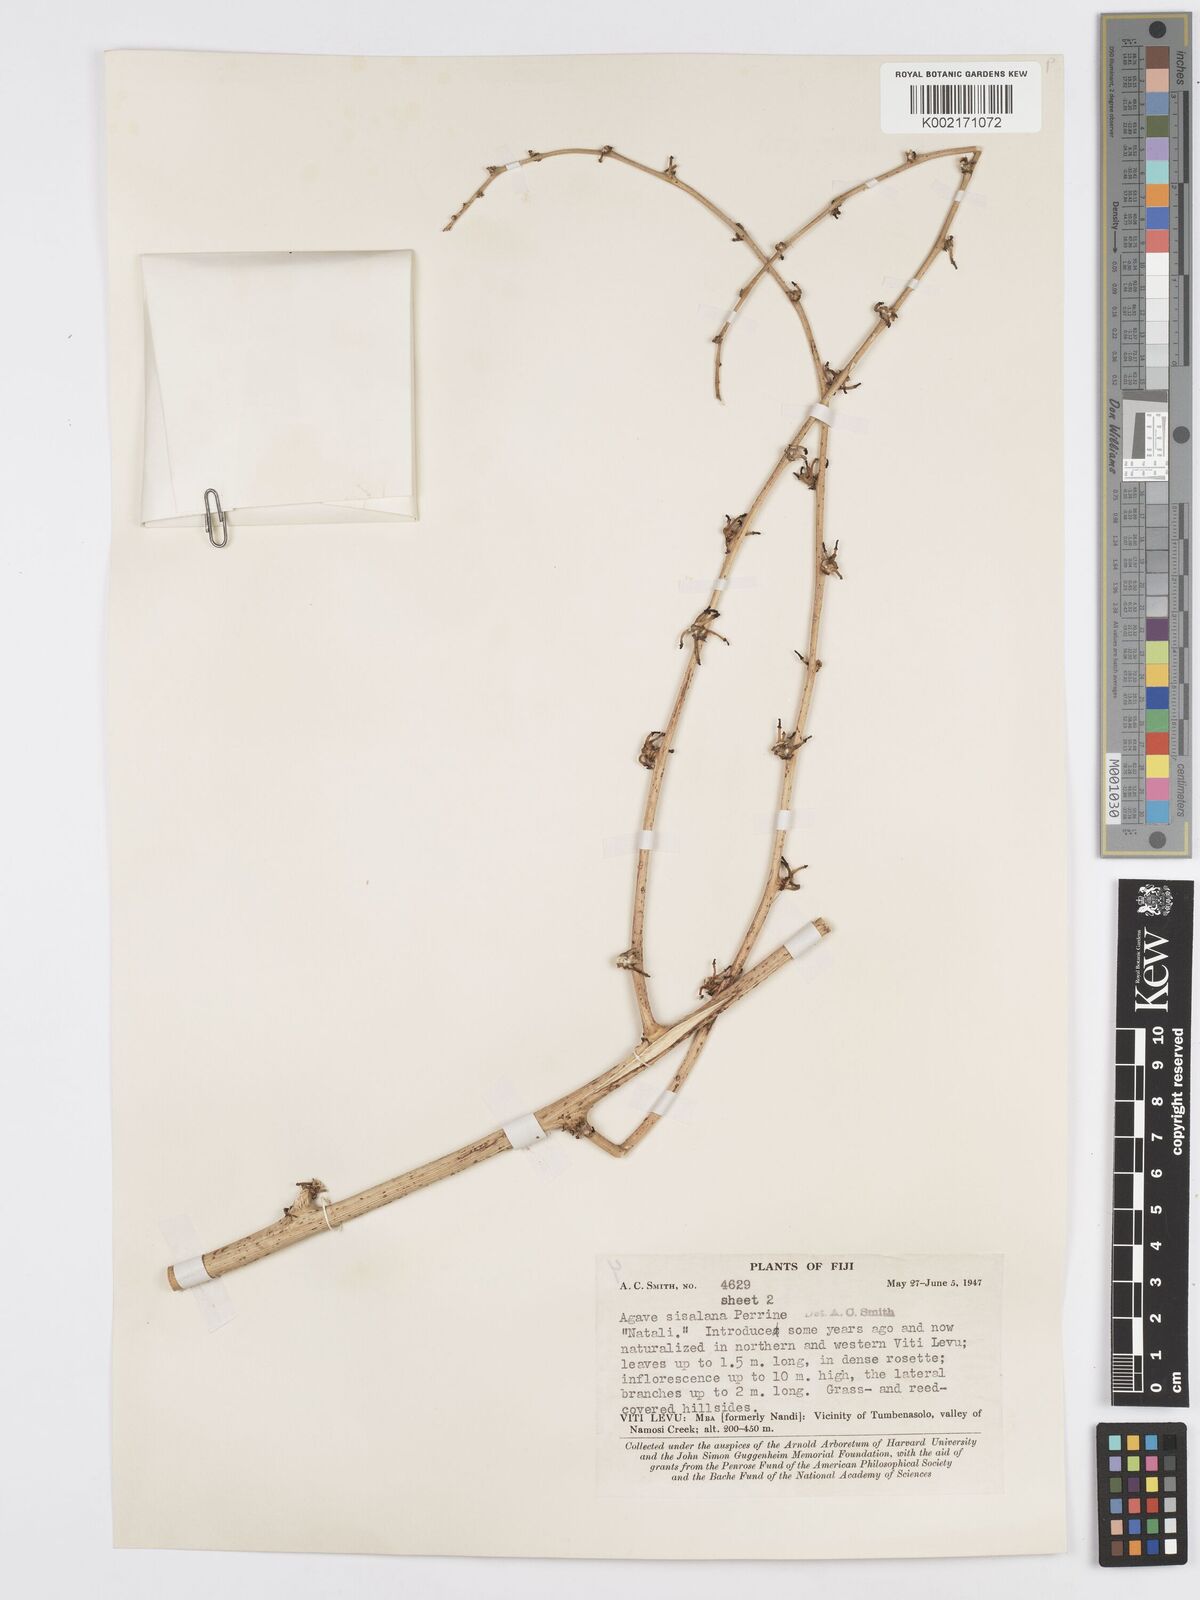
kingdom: Plantae
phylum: Tracheophyta
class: Liliopsida
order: Asparagales
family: Asparagaceae
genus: Agave
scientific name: Agave sisalana
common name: Sisal hemp
